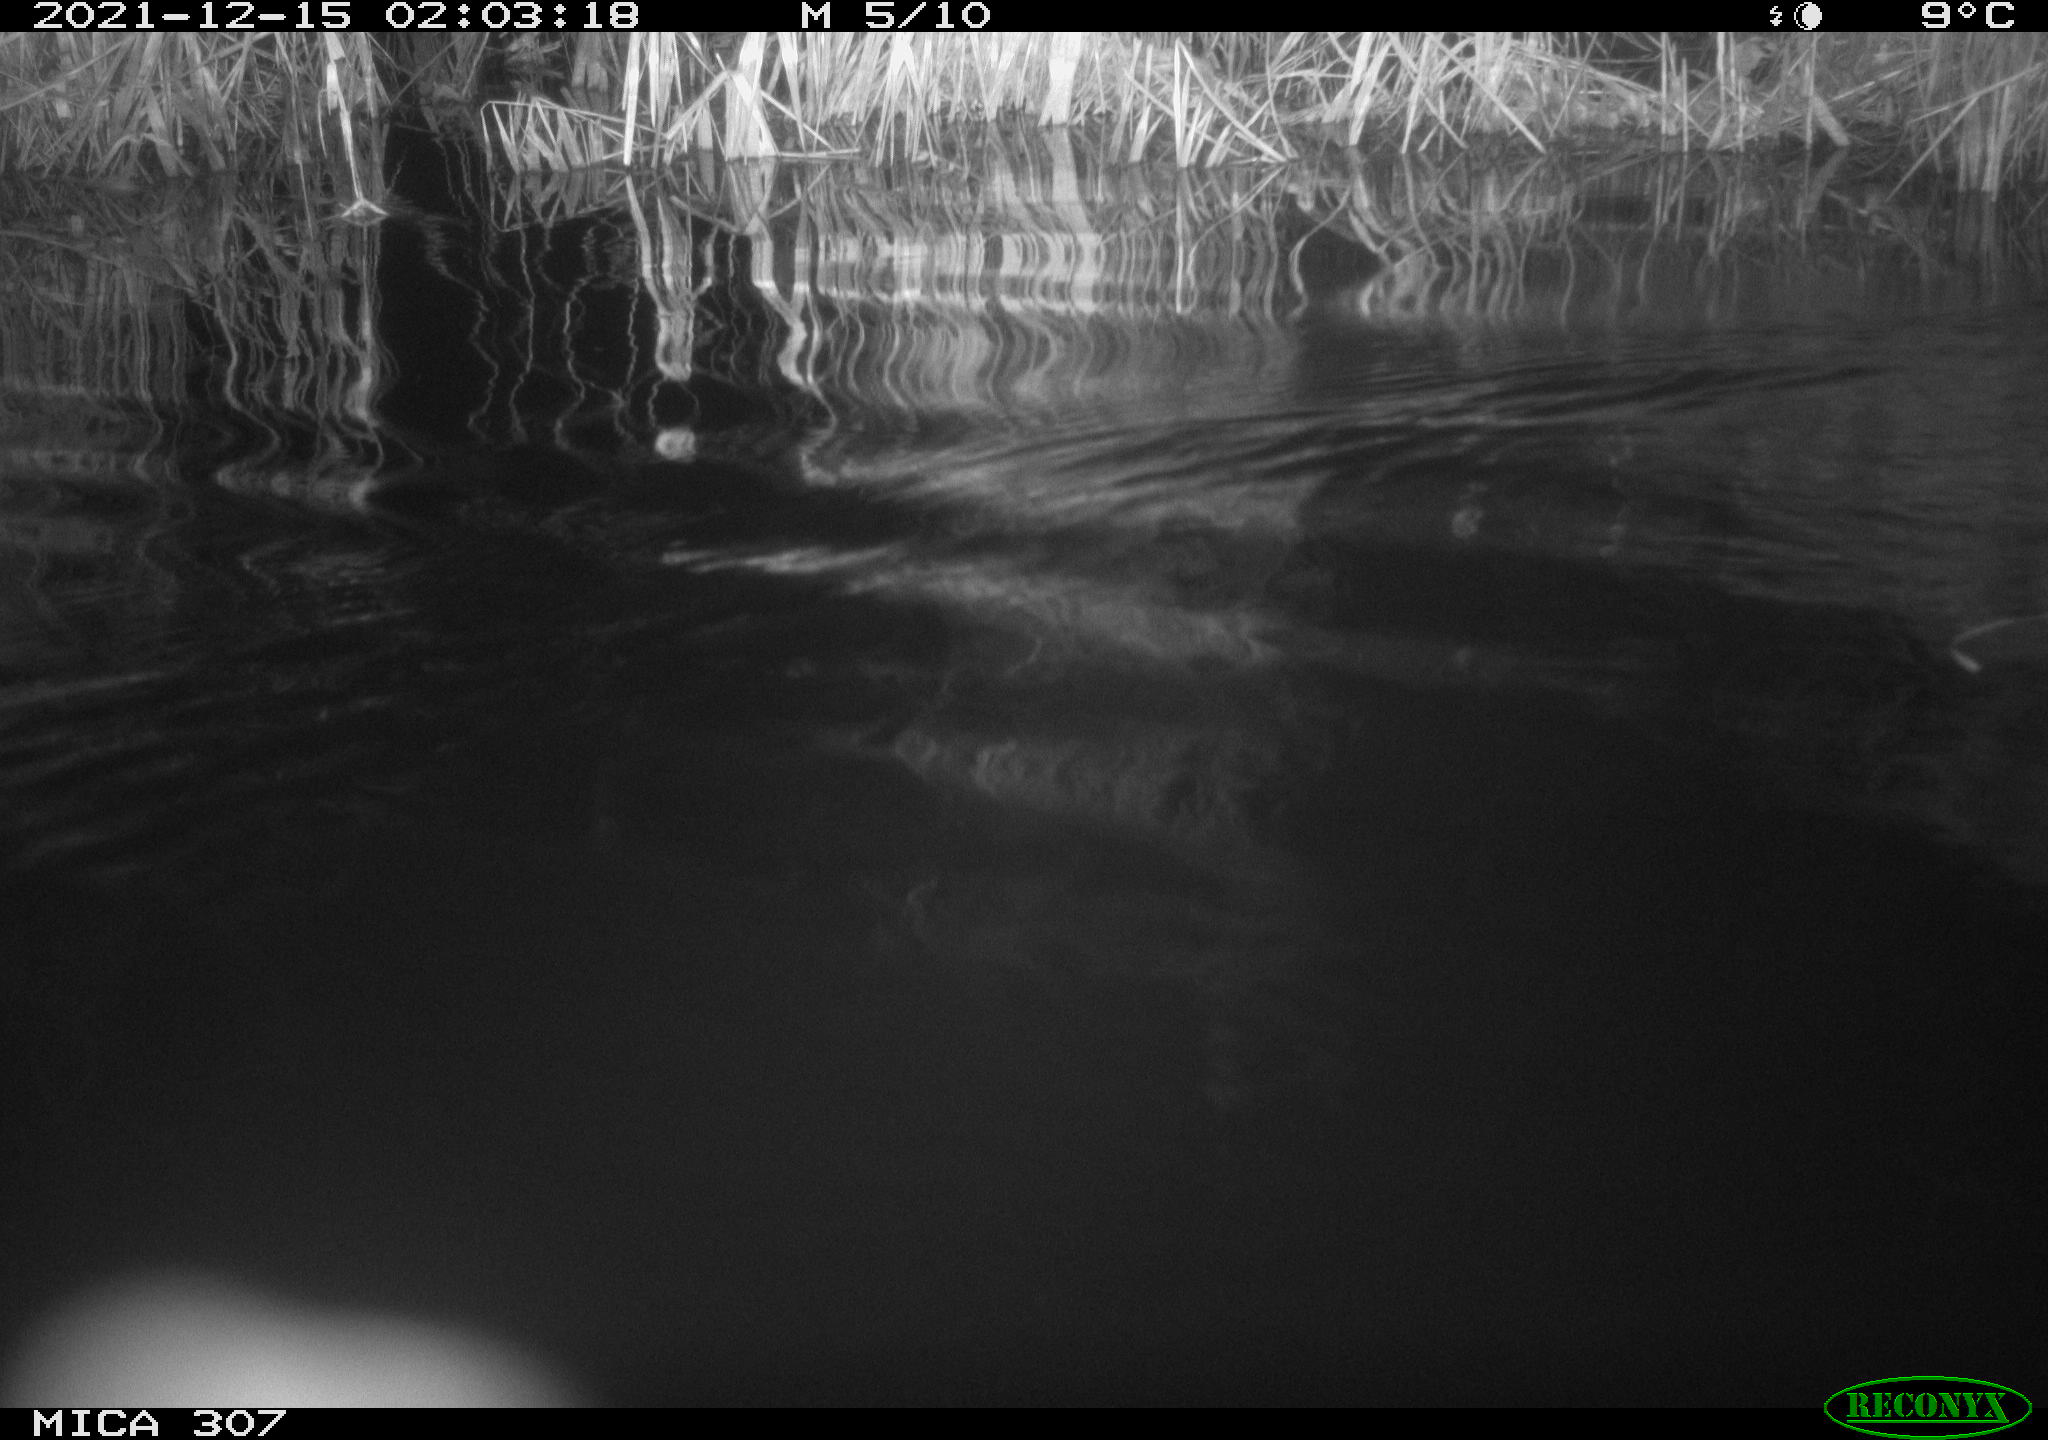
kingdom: Animalia
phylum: Chordata
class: Mammalia
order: Rodentia
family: Muridae
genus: Rattus
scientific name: Rattus norvegicus
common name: Brown rat
